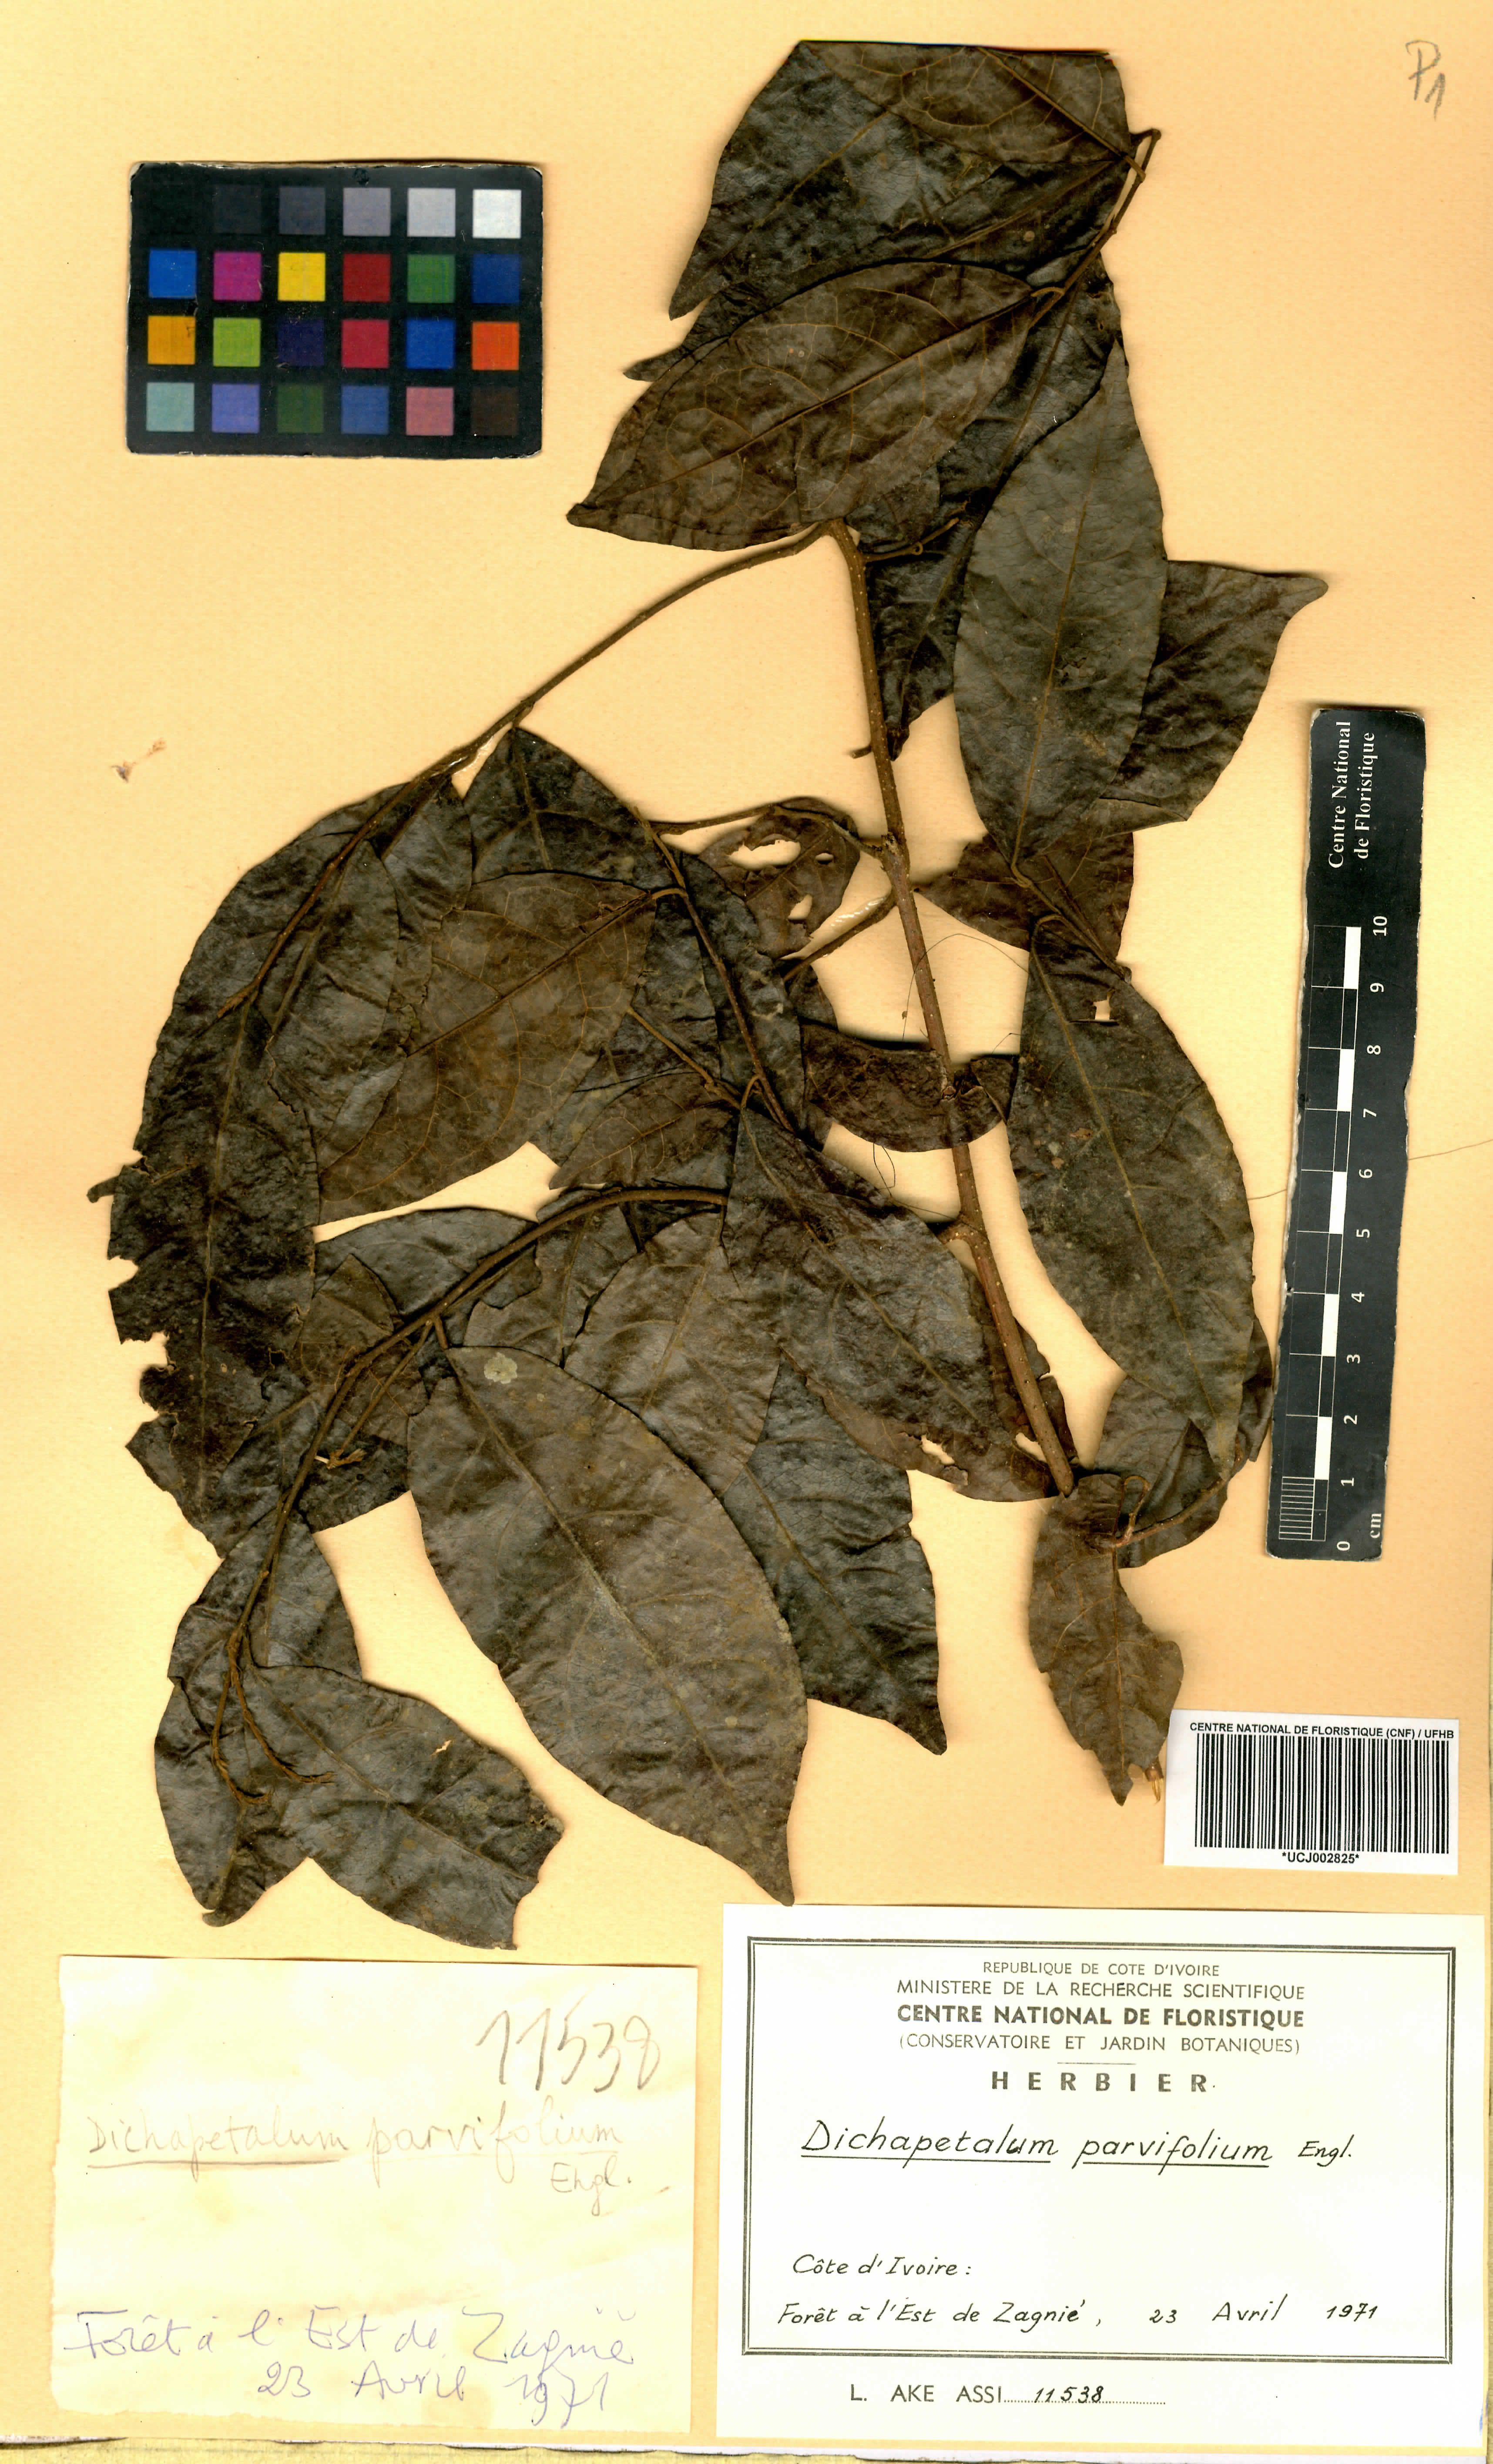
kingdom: Plantae
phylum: Tracheophyta
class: Magnoliopsida
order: Malpighiales
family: Dichapetalaceae
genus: Dichapetalum
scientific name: Dichapetalum parvifolium
